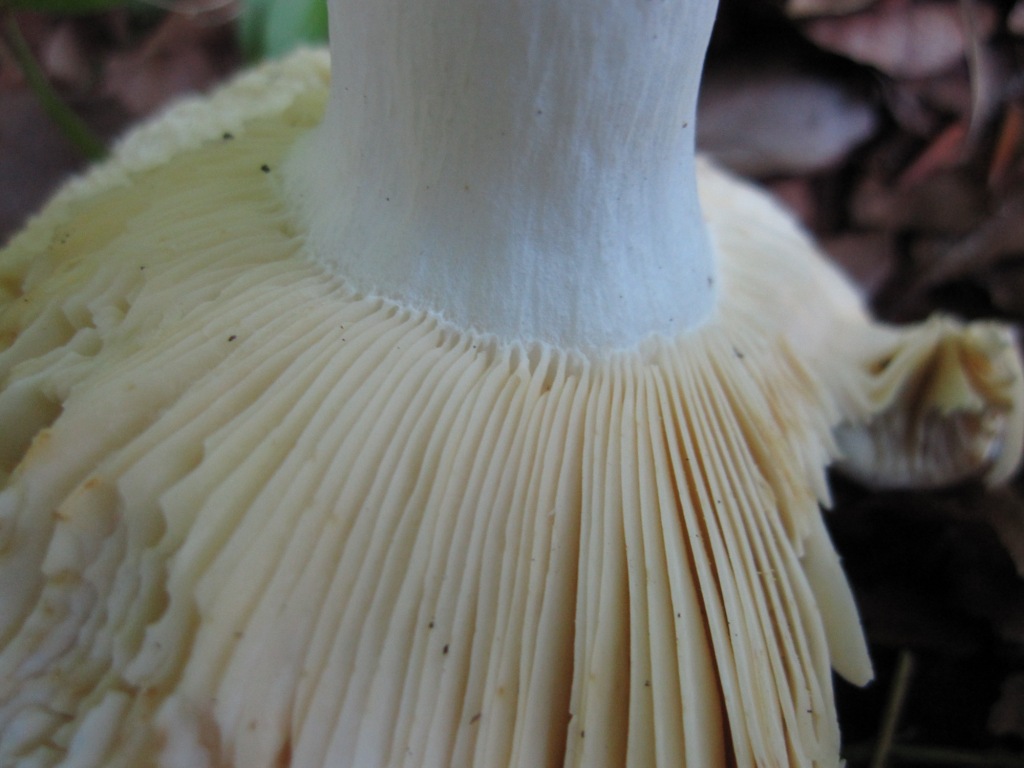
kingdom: Fungi
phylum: Basidiomycota
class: Agaricomycetes
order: Russulales
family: Russulaceae
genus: Russula
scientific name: Russula veternosa
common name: blødkødet skørhat
